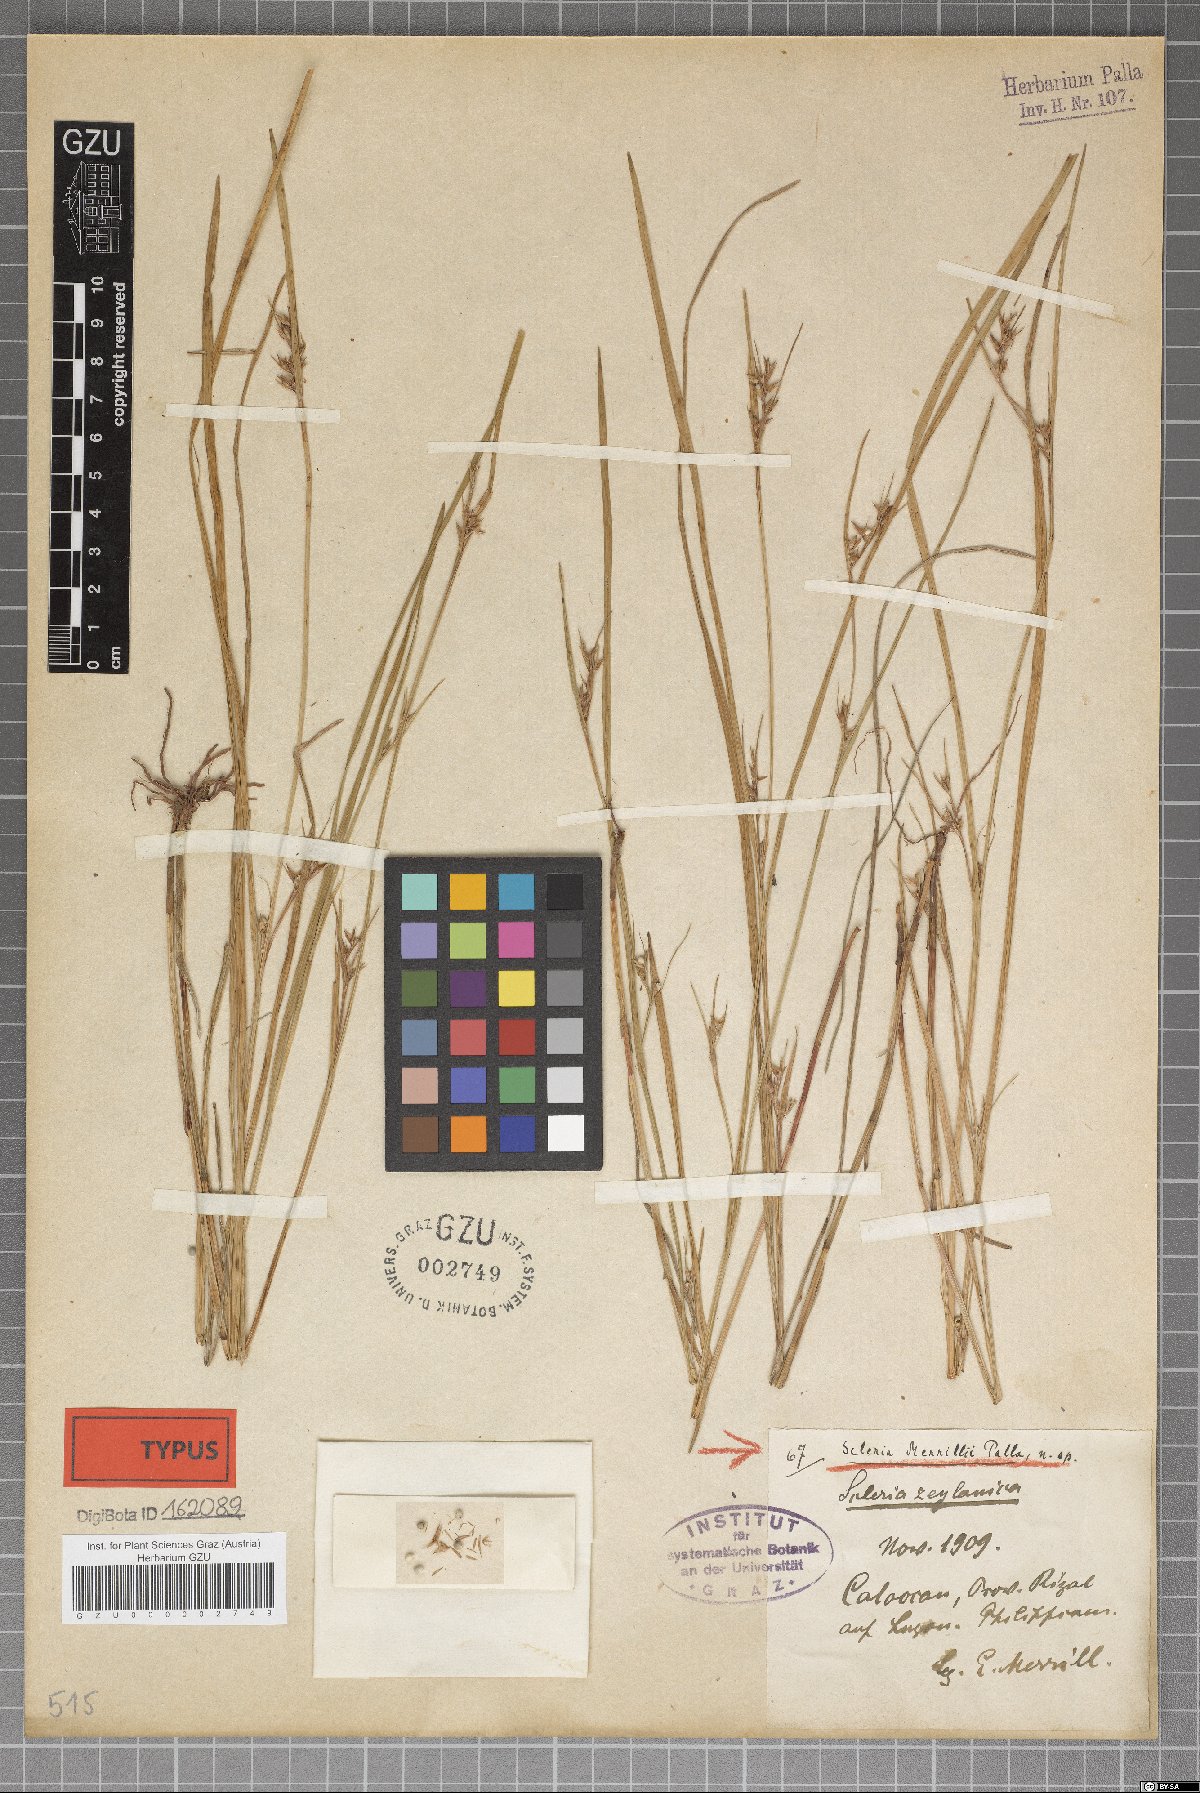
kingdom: Plantae
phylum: Tracheophyta
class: Liliopsida
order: Poales
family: Cyperaceae
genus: Scleria
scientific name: Scleria novae-hollandiae
